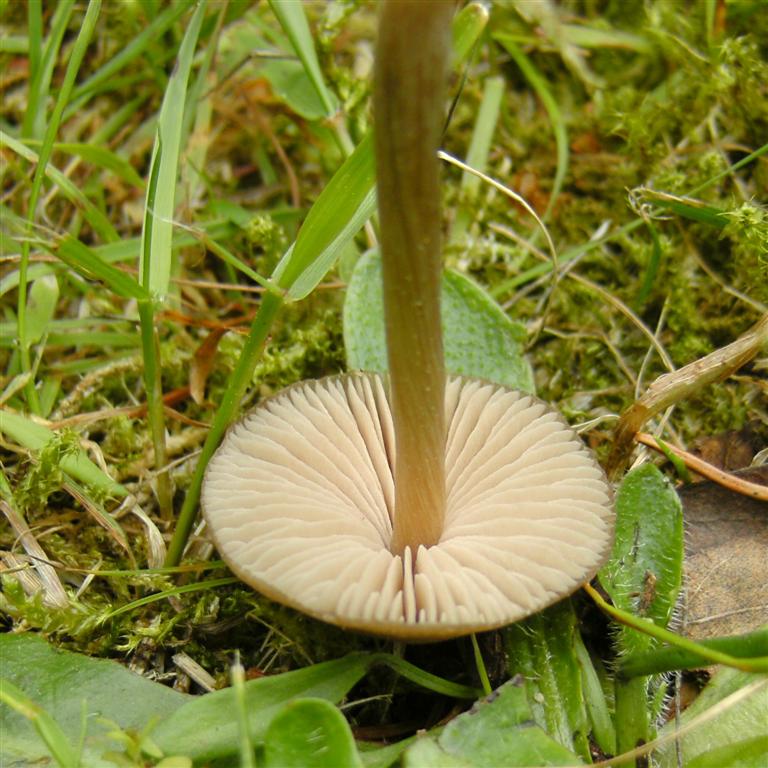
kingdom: Fungi
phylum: Basidiomycota
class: Agaricomycetes
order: Agaricales
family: Entolomataceae
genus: Entoloma
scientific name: Entoloma conferendum
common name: stjernesporet rødblad
